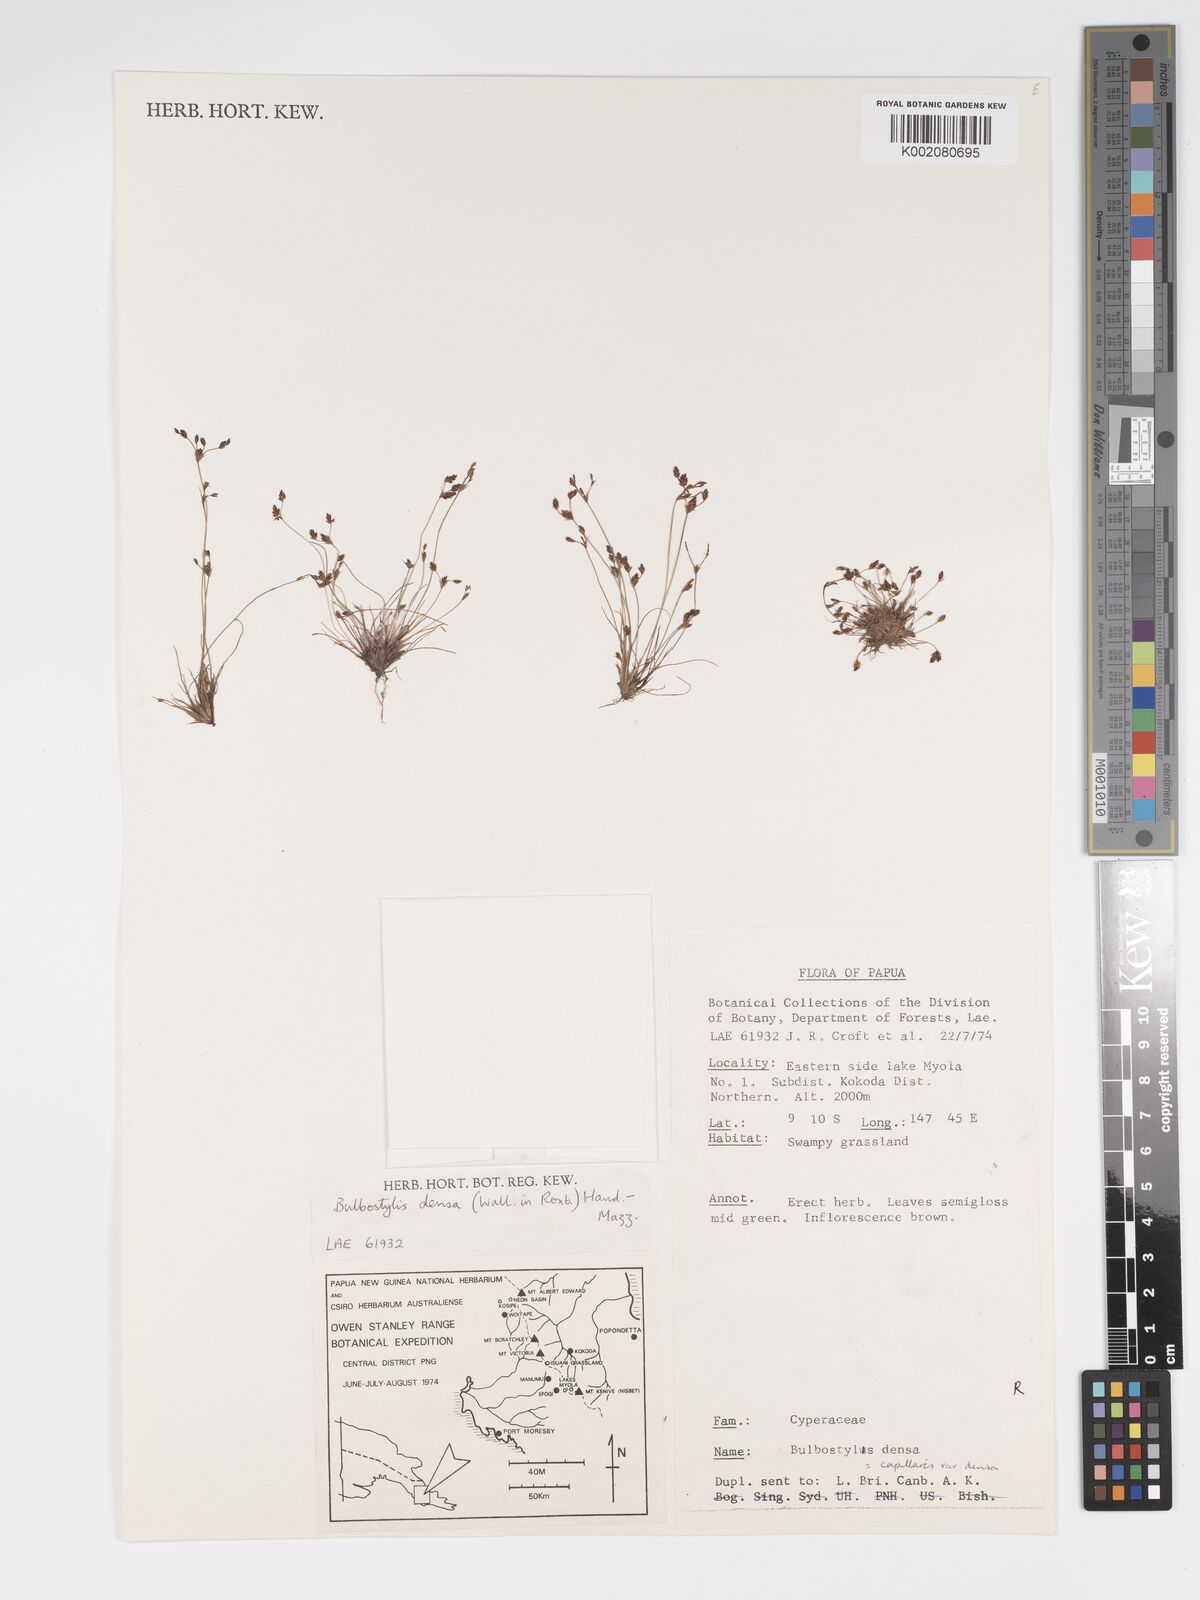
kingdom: Plantae
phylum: Tracheophyta
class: Liliopsida
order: Poales
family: Cyperaceae
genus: Bulbostylis
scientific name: Bulbostylis densa
